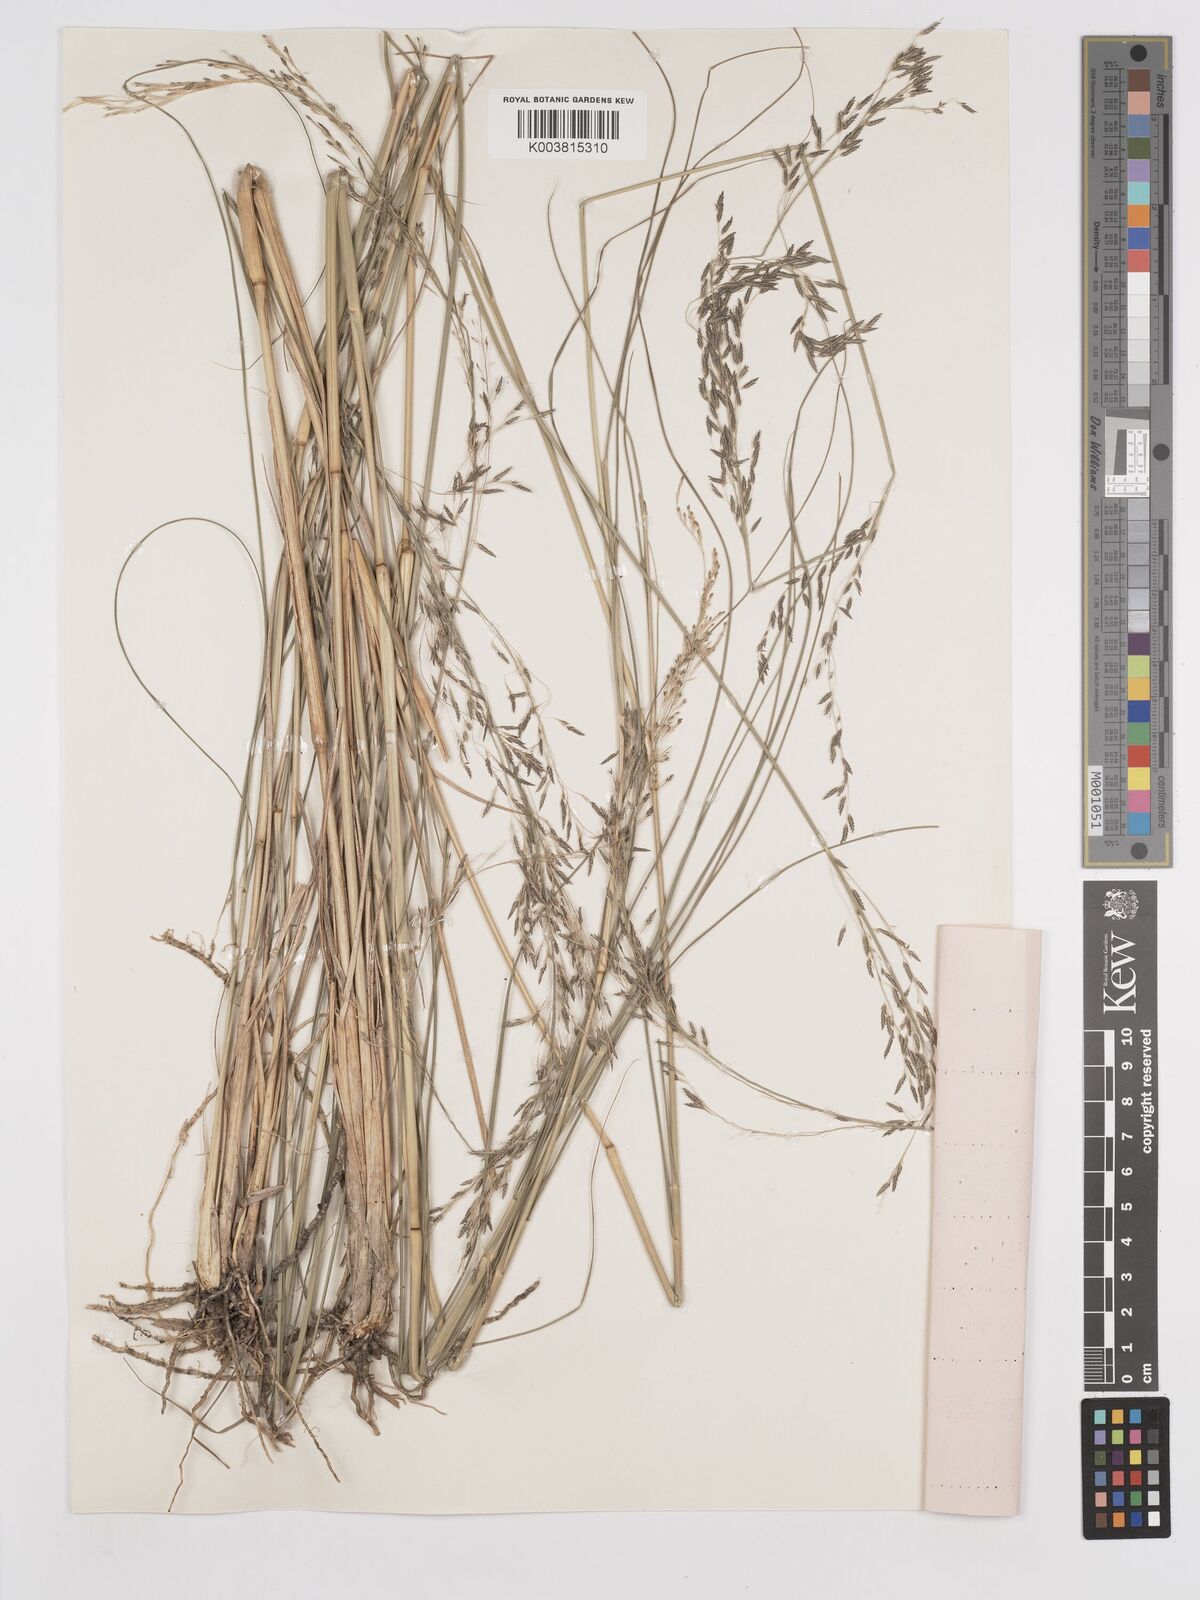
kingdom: Plantae
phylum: Tracheophyta
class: Liliopsida
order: Poales
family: Poaceae
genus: Eragrostis
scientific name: Eragrostis prolifera
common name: Dominican lovegrass
